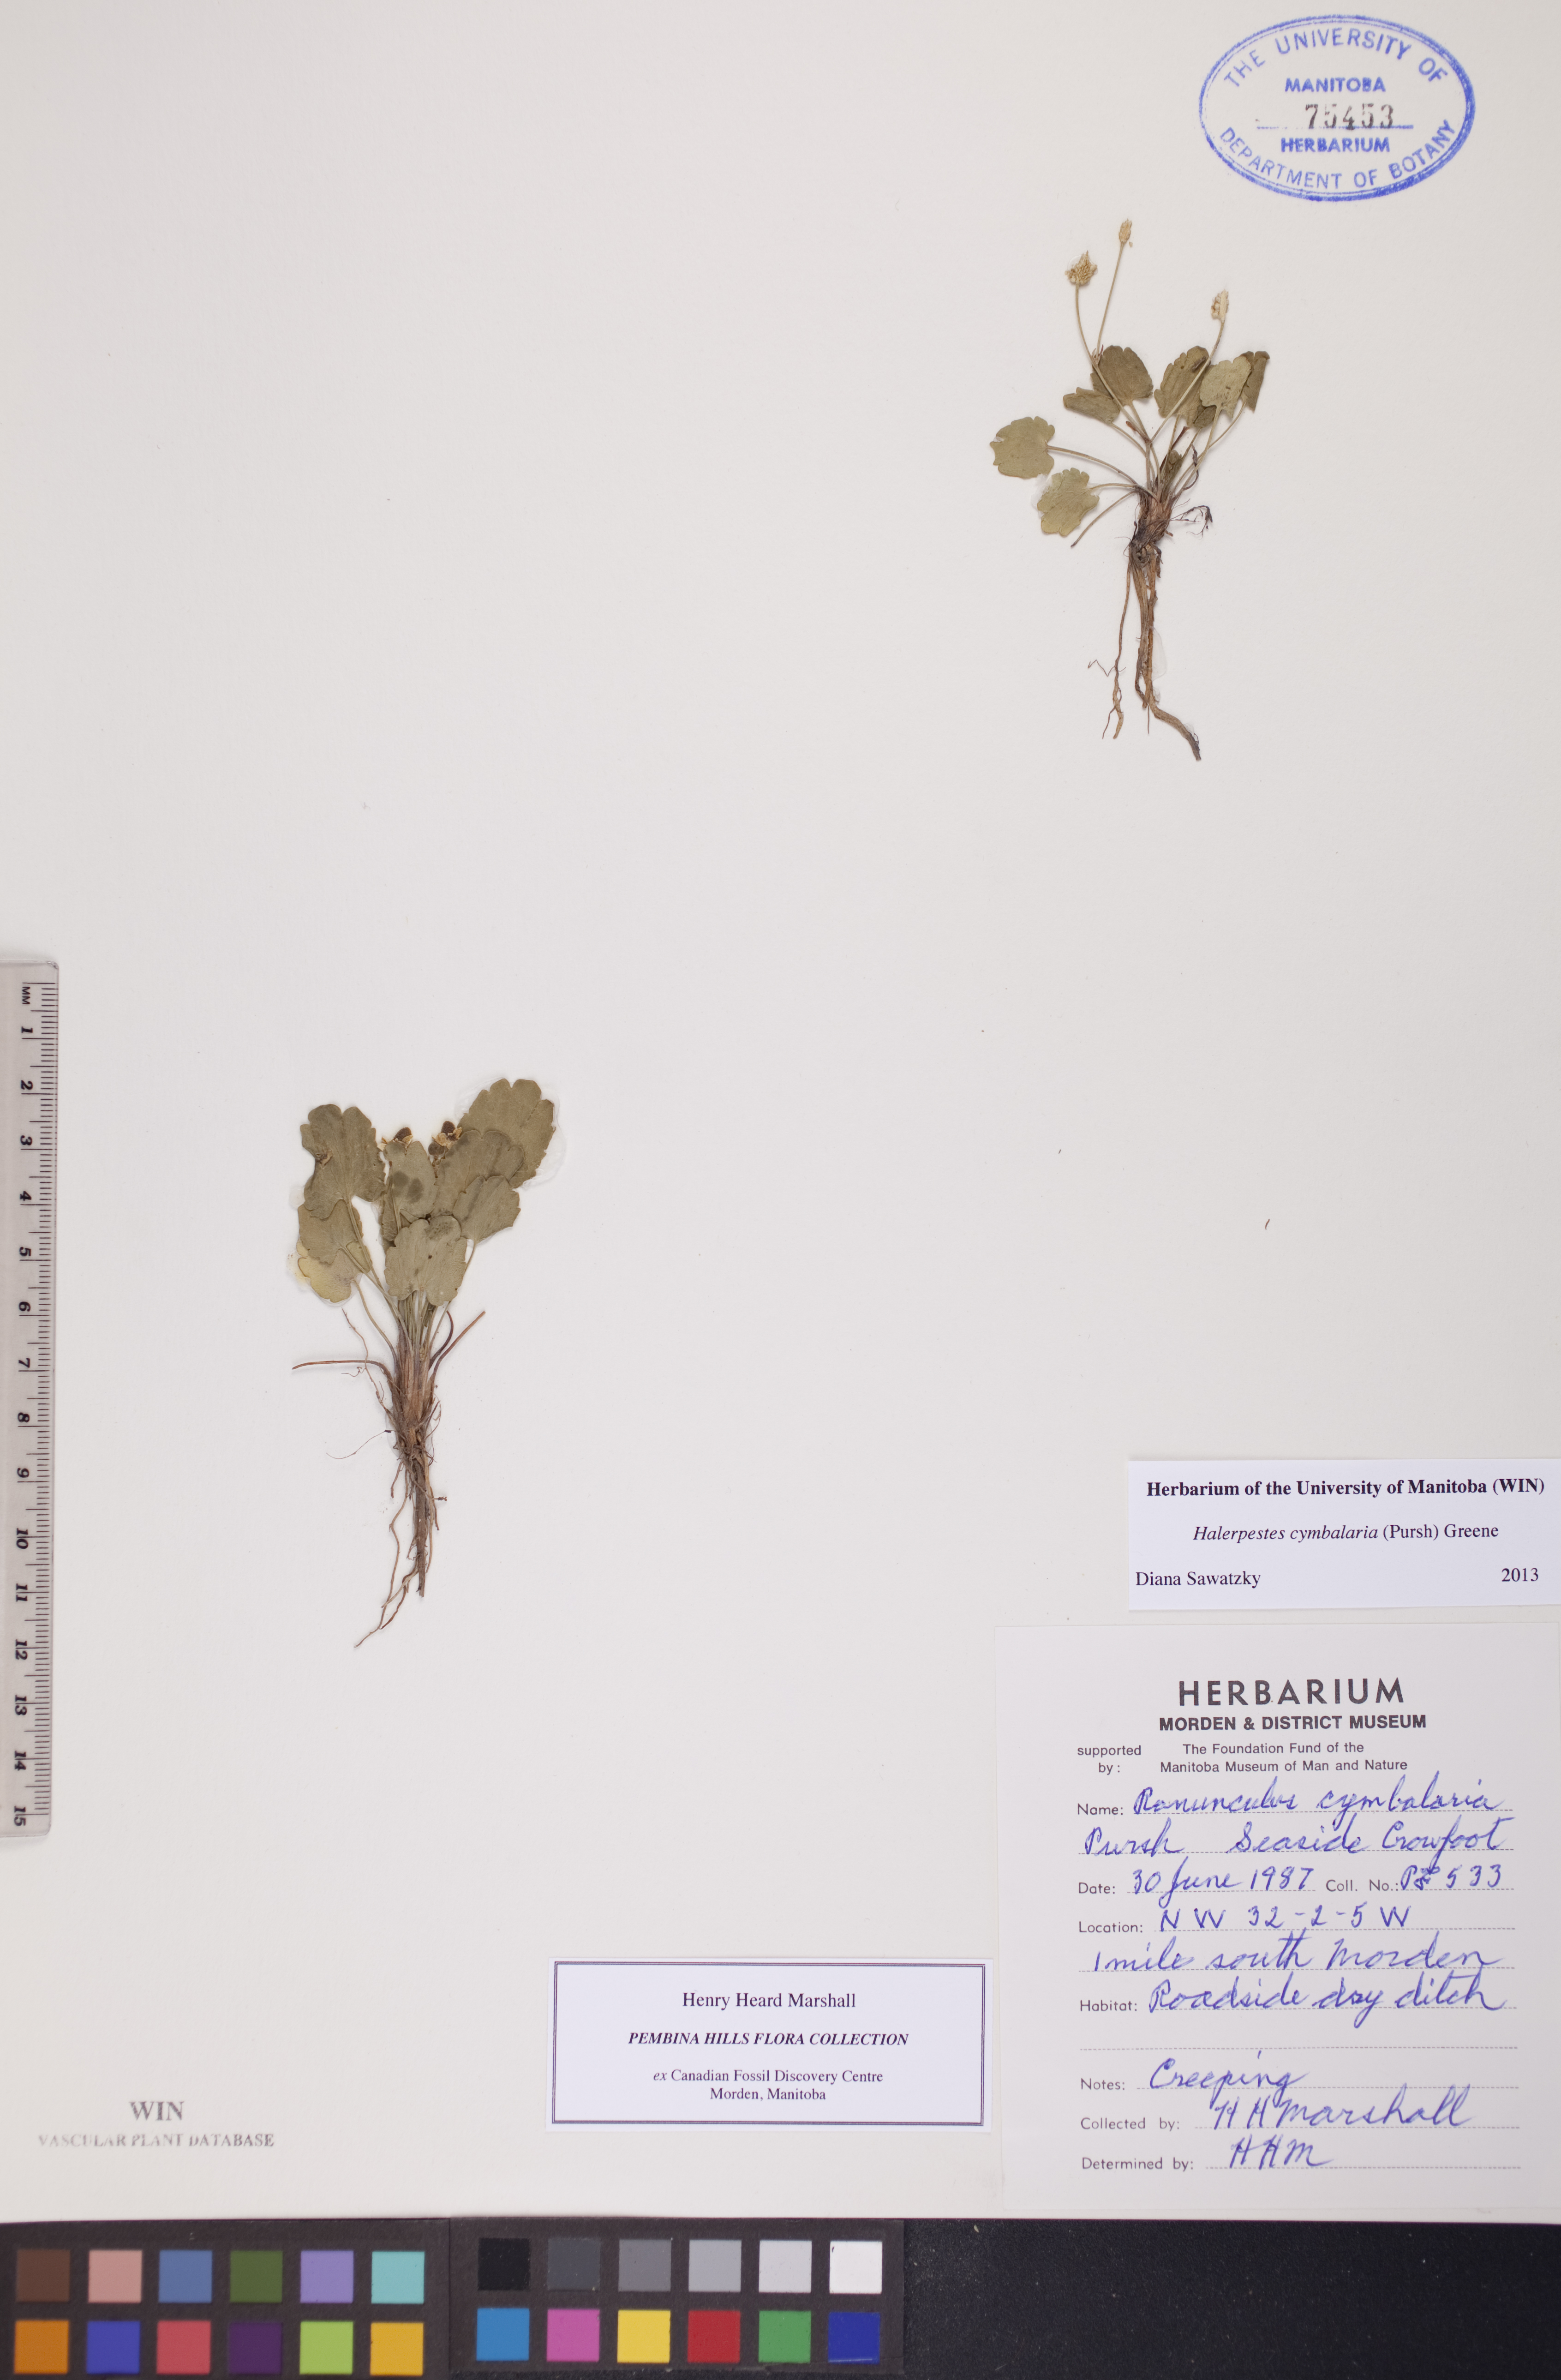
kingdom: Plantae
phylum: Tracheophyta
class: Magnoliopsida
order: Ranunculales
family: Ranunculaceae
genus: Halerpestes
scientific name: Halerpestes cymbalaria
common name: Seaside crowfoot
